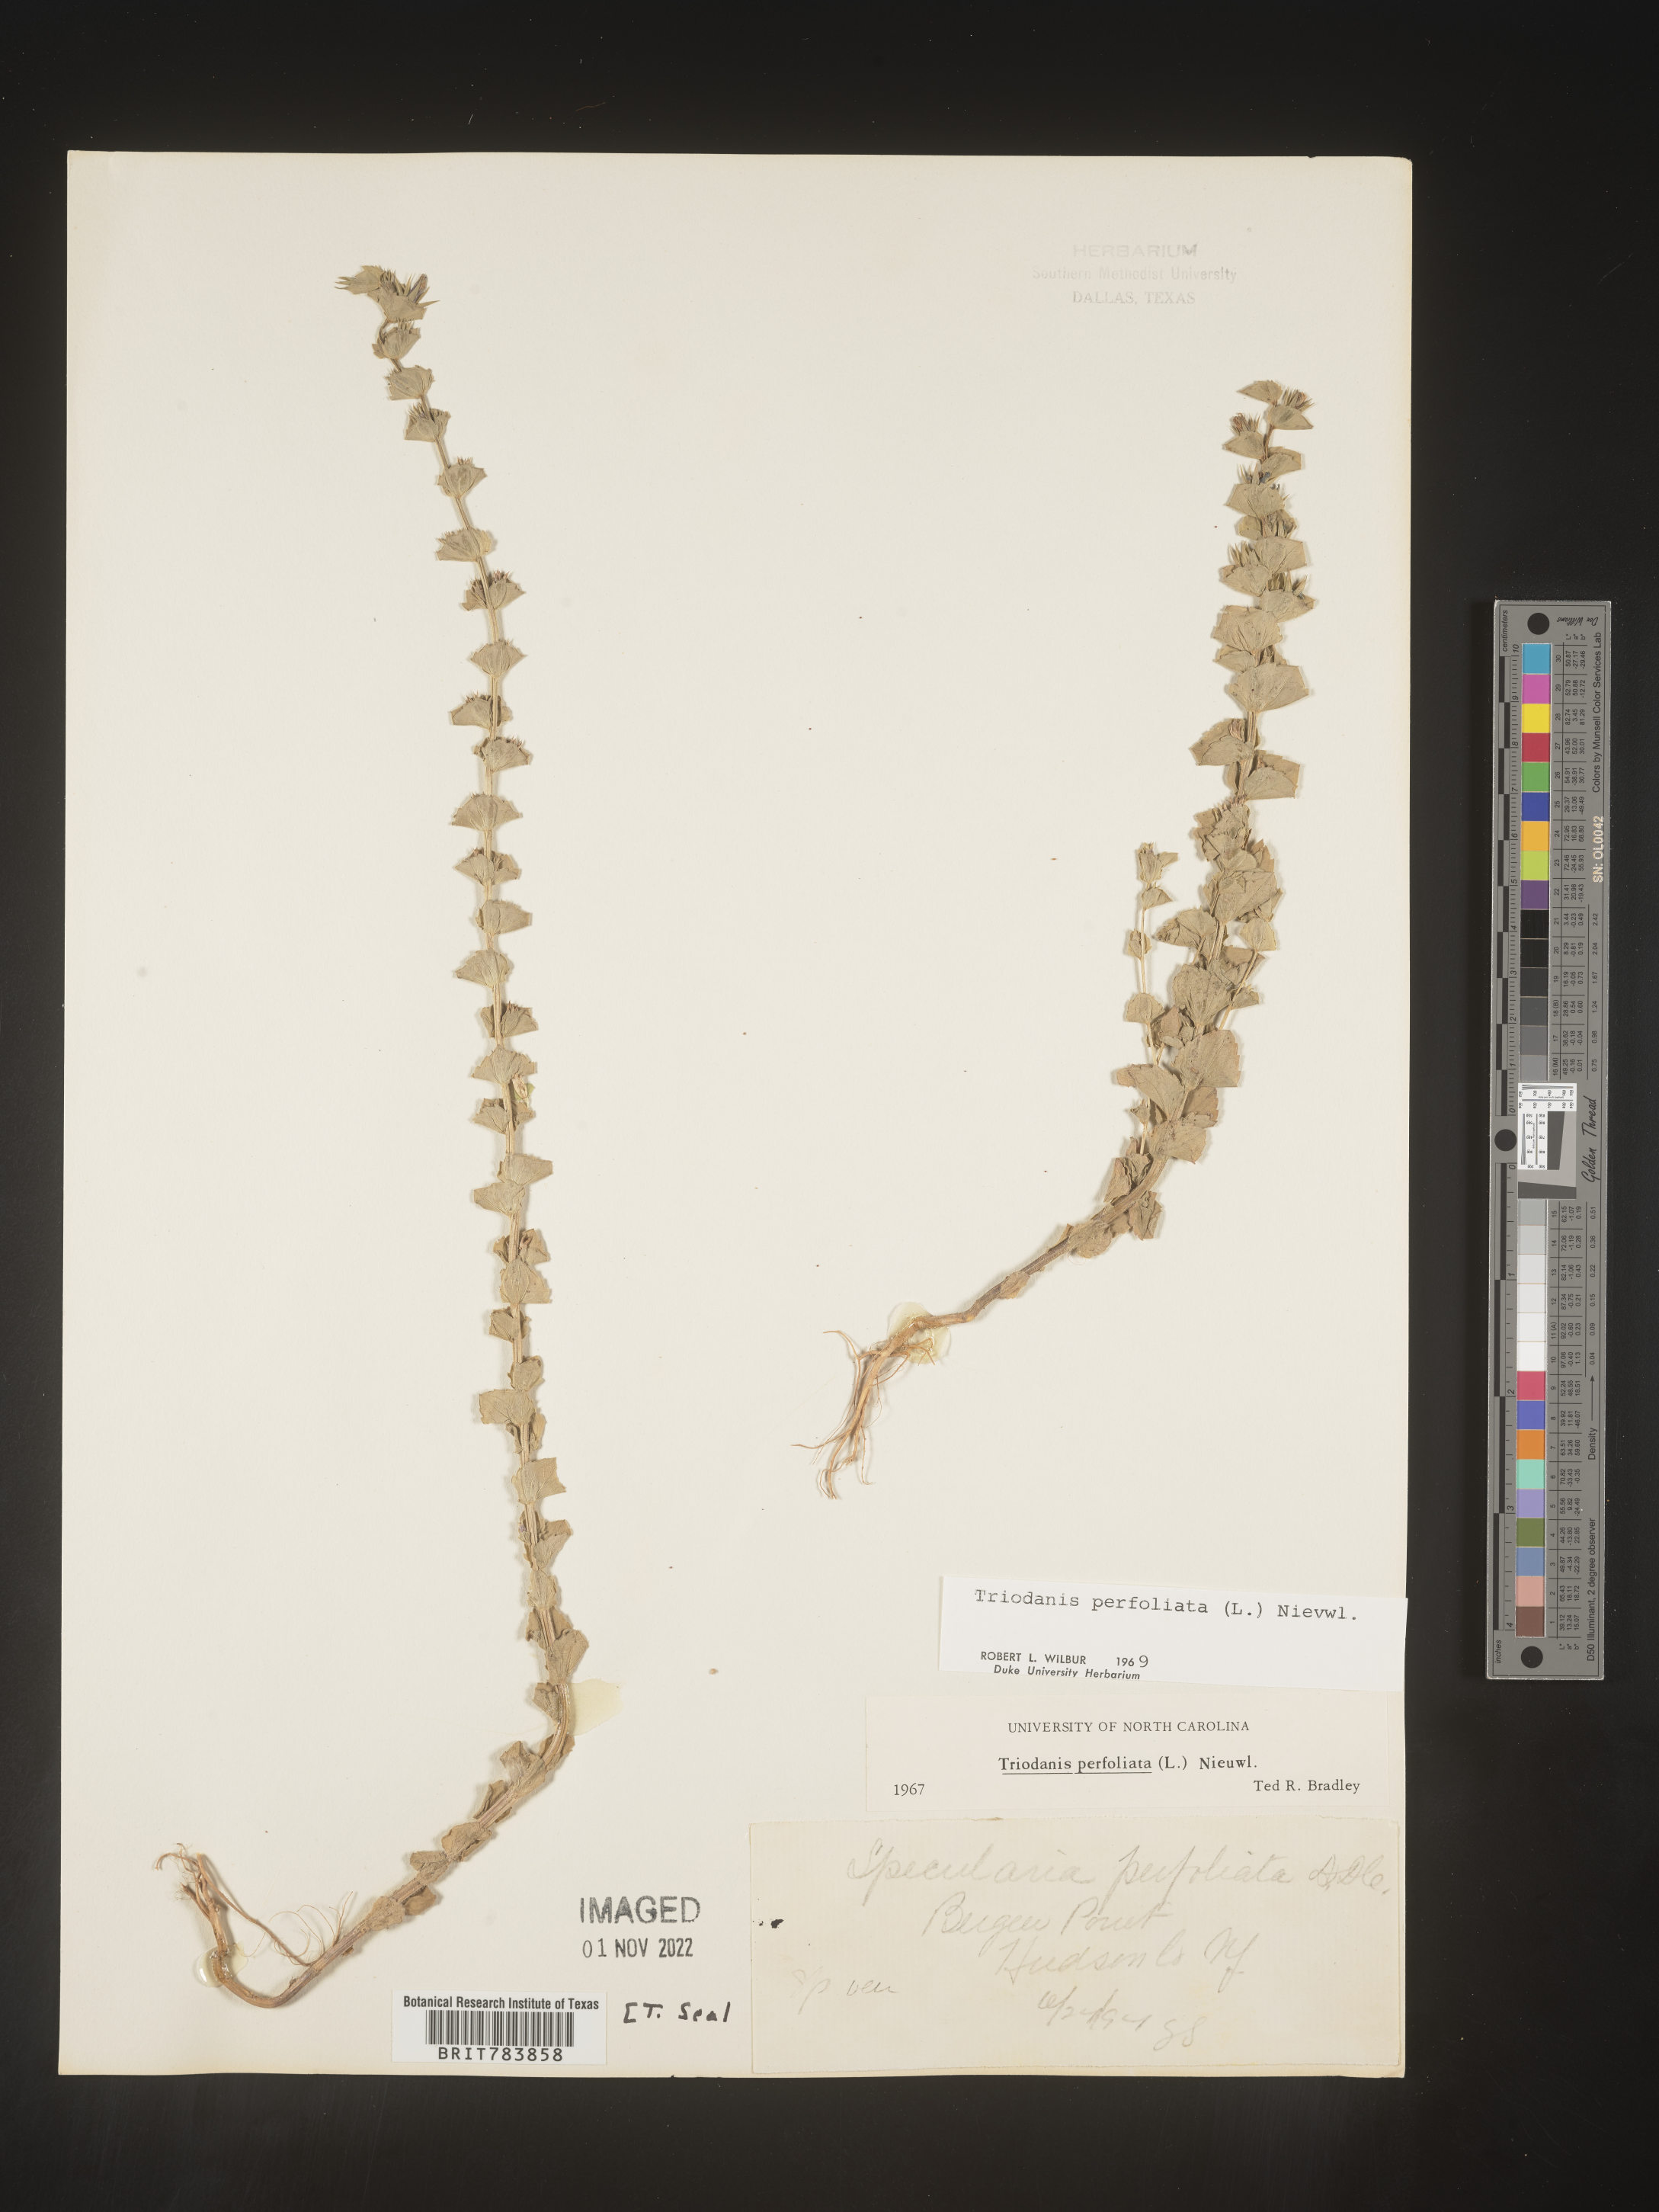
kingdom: Plantae
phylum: Tracheophyta
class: Magnoliopsida
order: Asterales
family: Campanulaceae
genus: Triodanis
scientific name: Triodanis perfoliata
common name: Clasping venus' looking-glass
